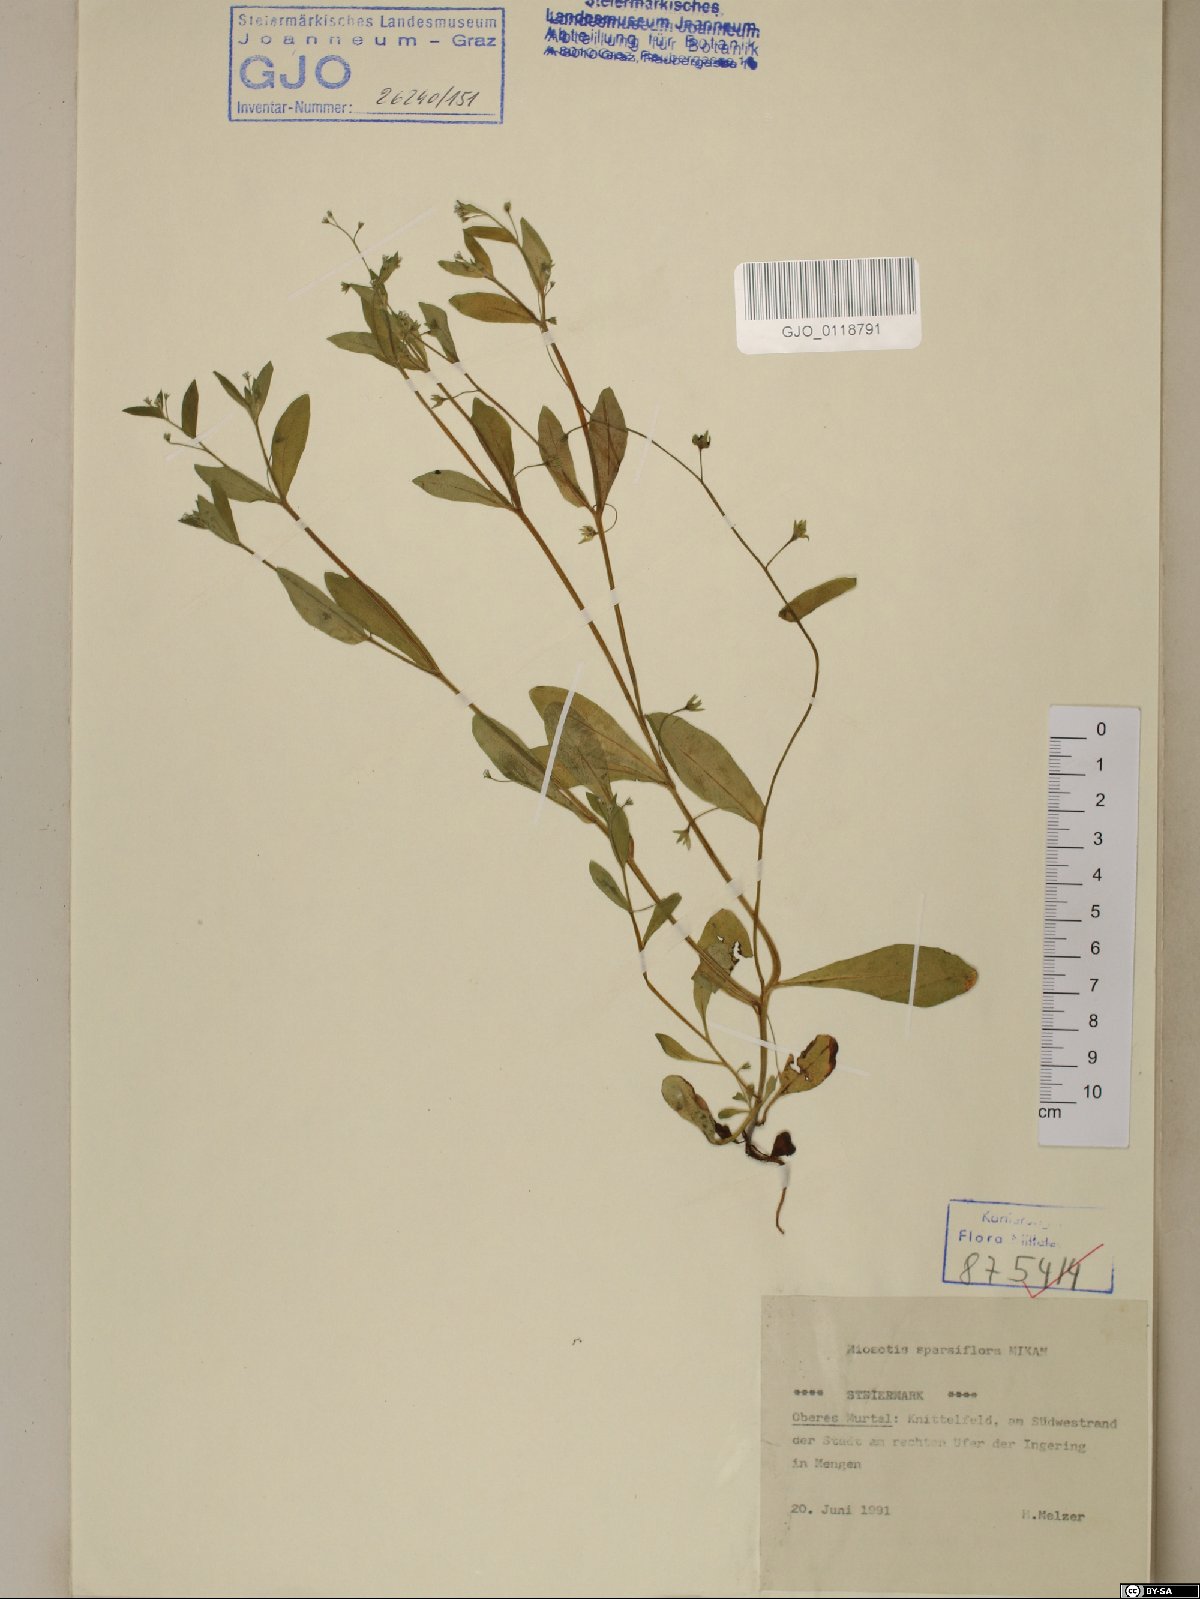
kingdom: Plantae
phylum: Tracheophyta
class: Magnoliopsida
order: Boraginales
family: Boraginaceae
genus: Myosotis
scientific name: Myosotis sparsiflora
